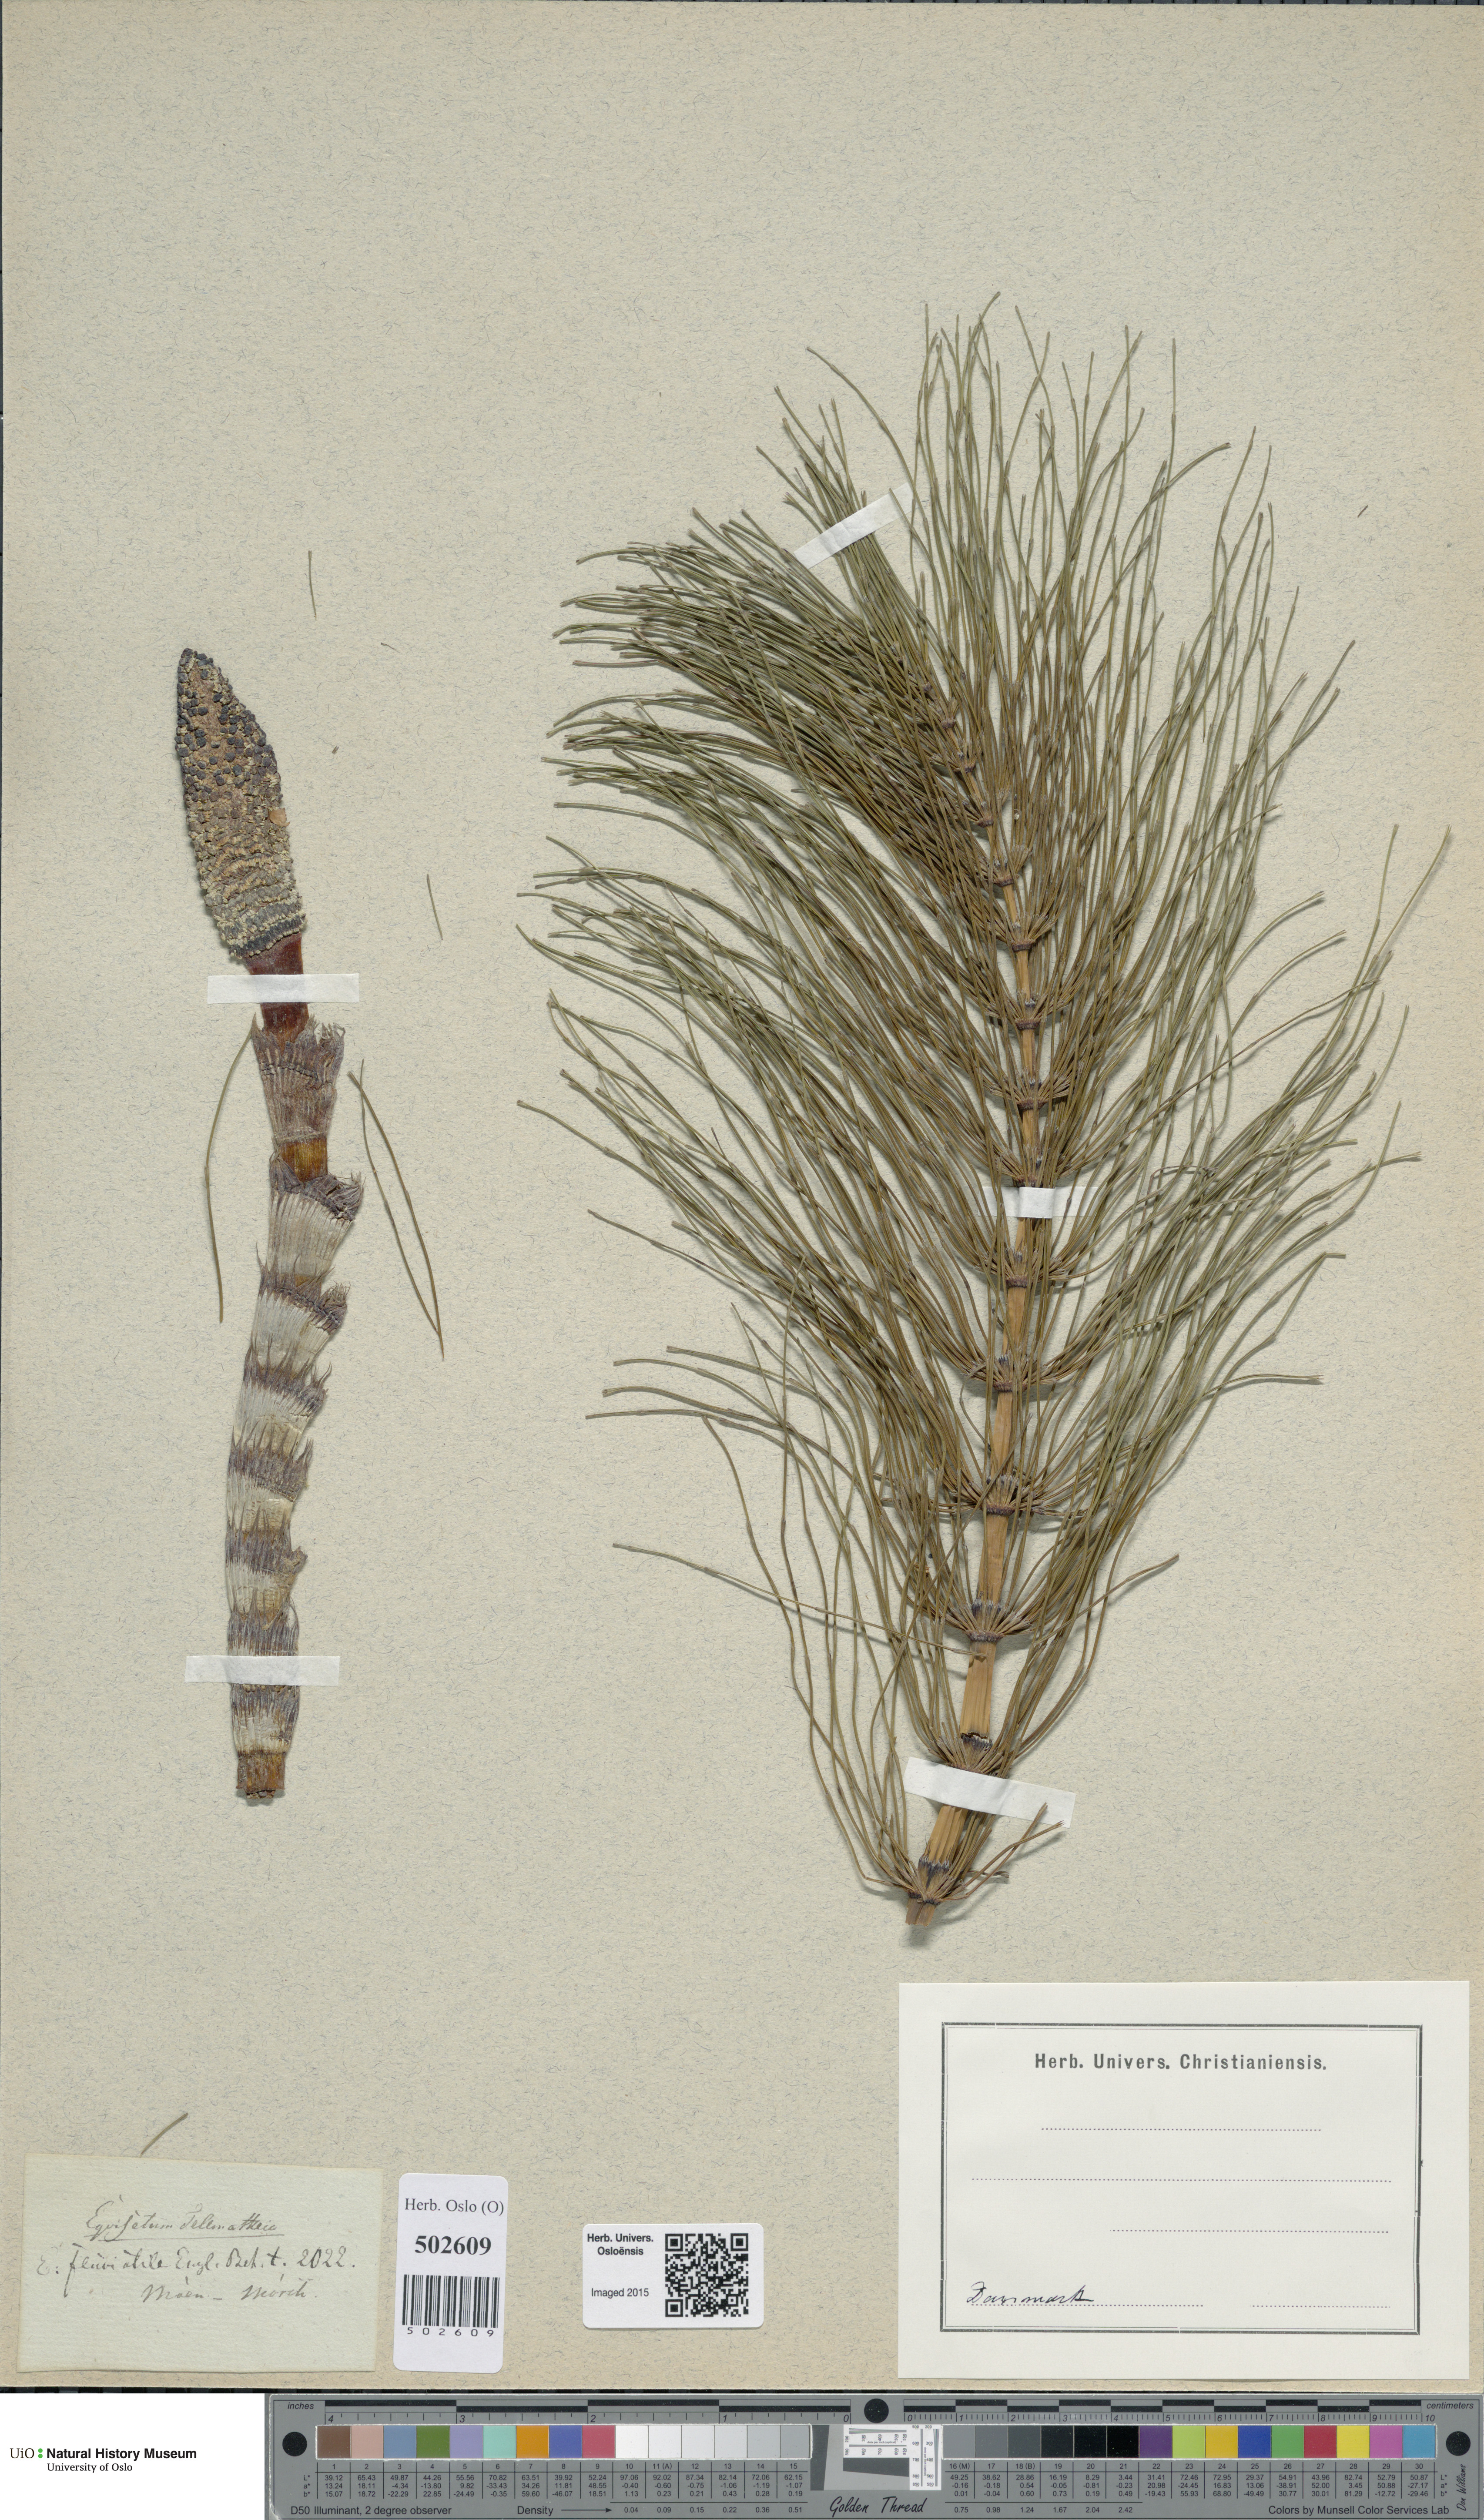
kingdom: Plantae
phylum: Tracheophyta
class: Polypodiopsida
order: Equisetales
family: Equisetaceae
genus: Equisetum
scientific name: Equisetum telmateia
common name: Great horsetail
